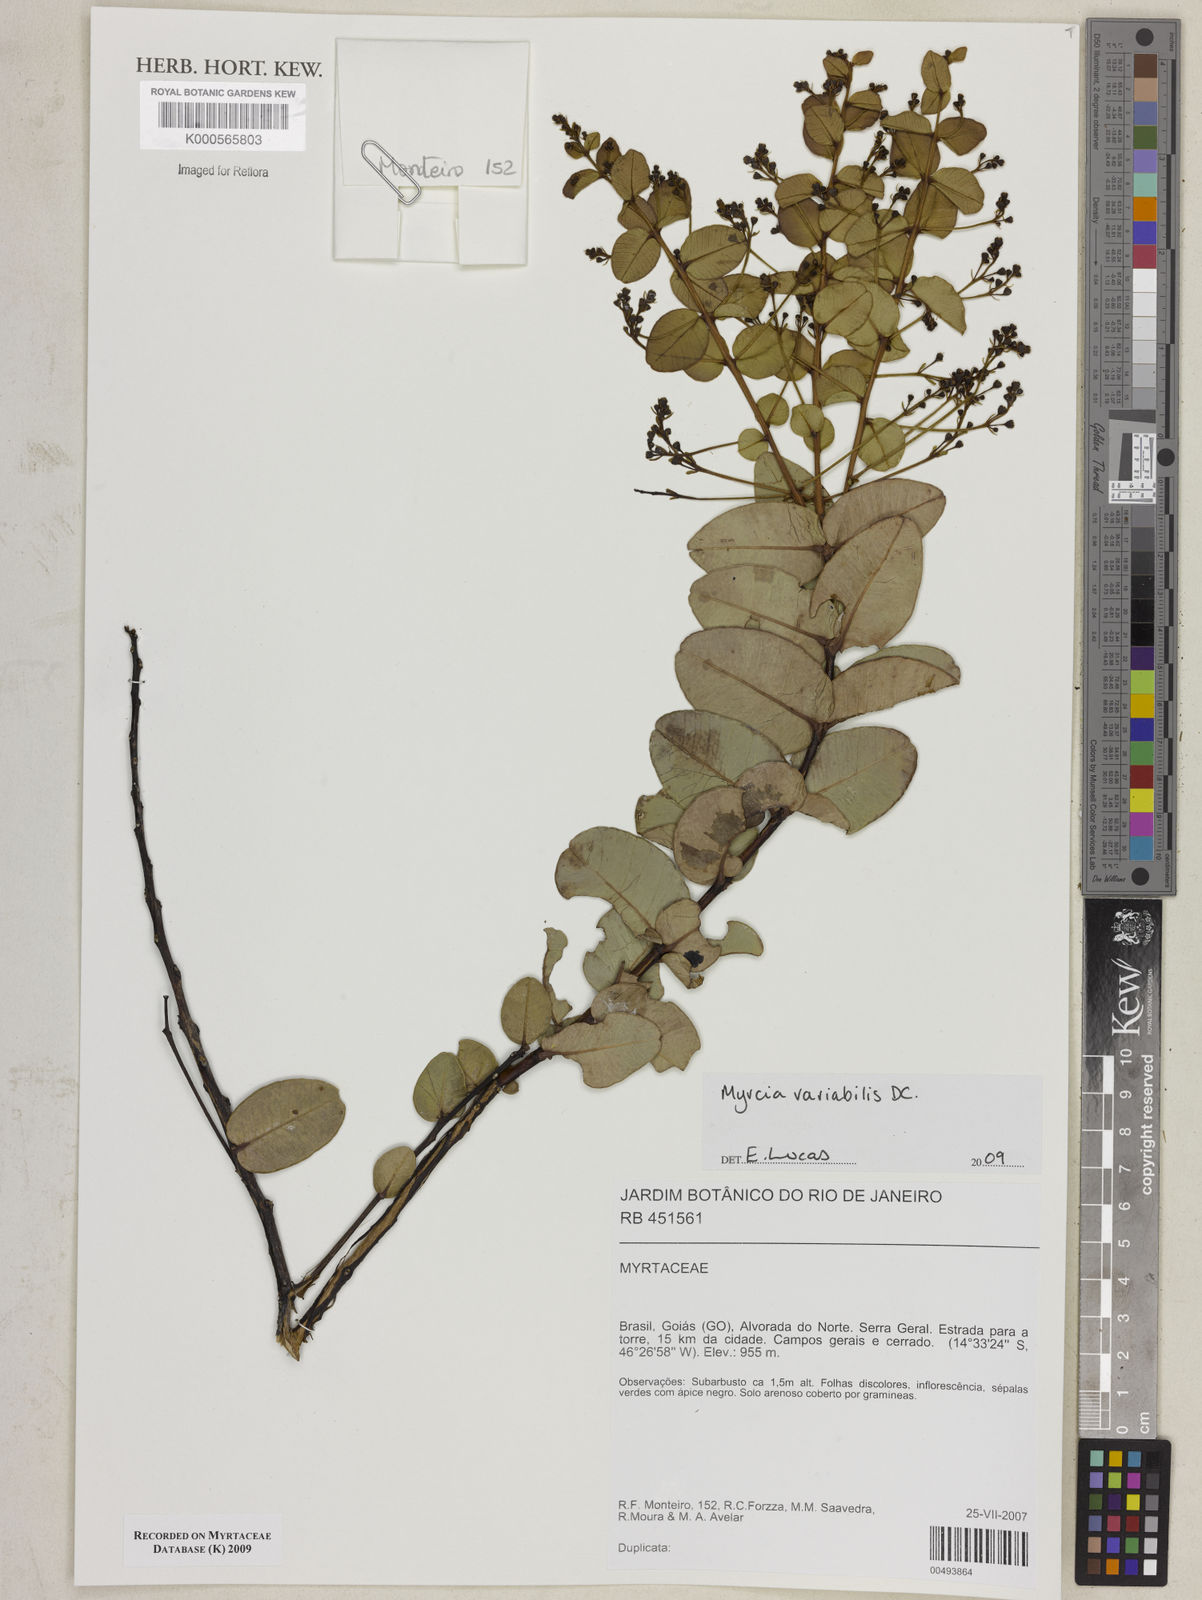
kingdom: Plantae
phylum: Tracheophyta
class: Magnoliopsida
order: Myrtales
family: Myrtaceae
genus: Myrcia
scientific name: Myrcia variabilis
